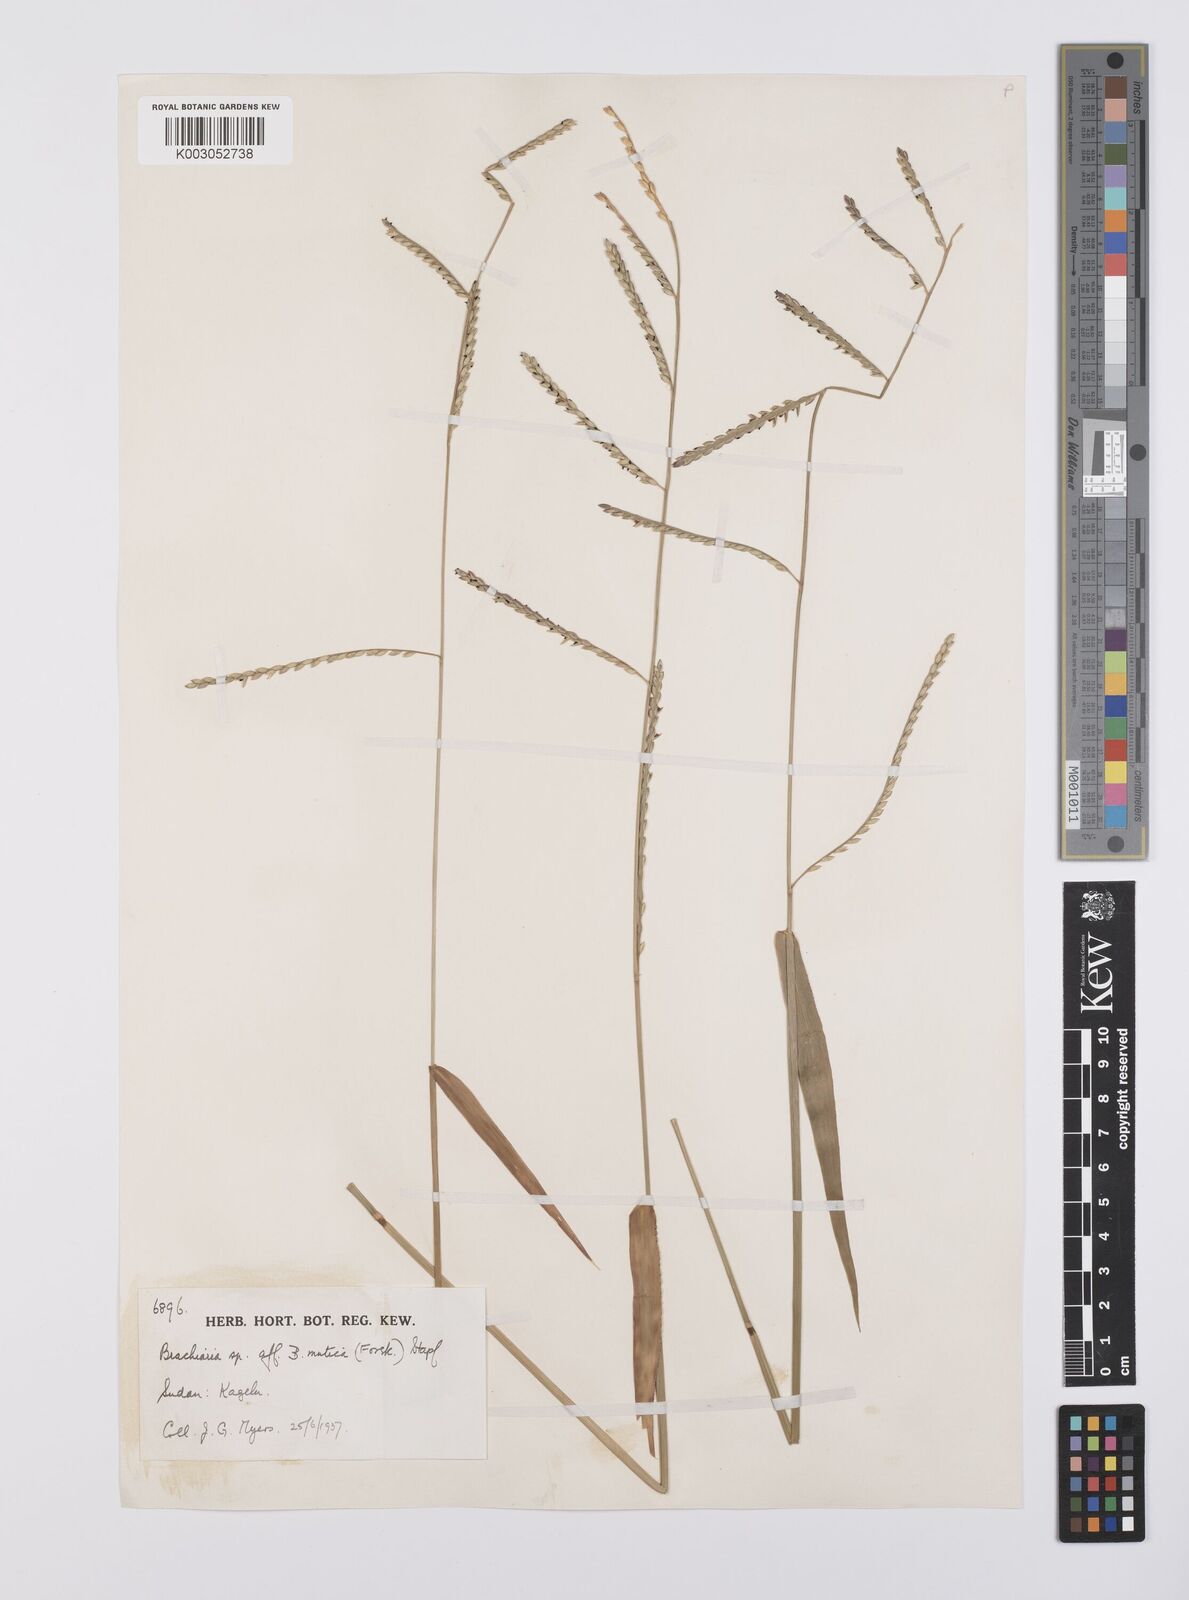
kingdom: Plantae
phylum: Tracheophyta
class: Liliopsida
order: Poales
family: Poaceae
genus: Urochloa
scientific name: Urochloa arrecta
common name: African signalgrass
